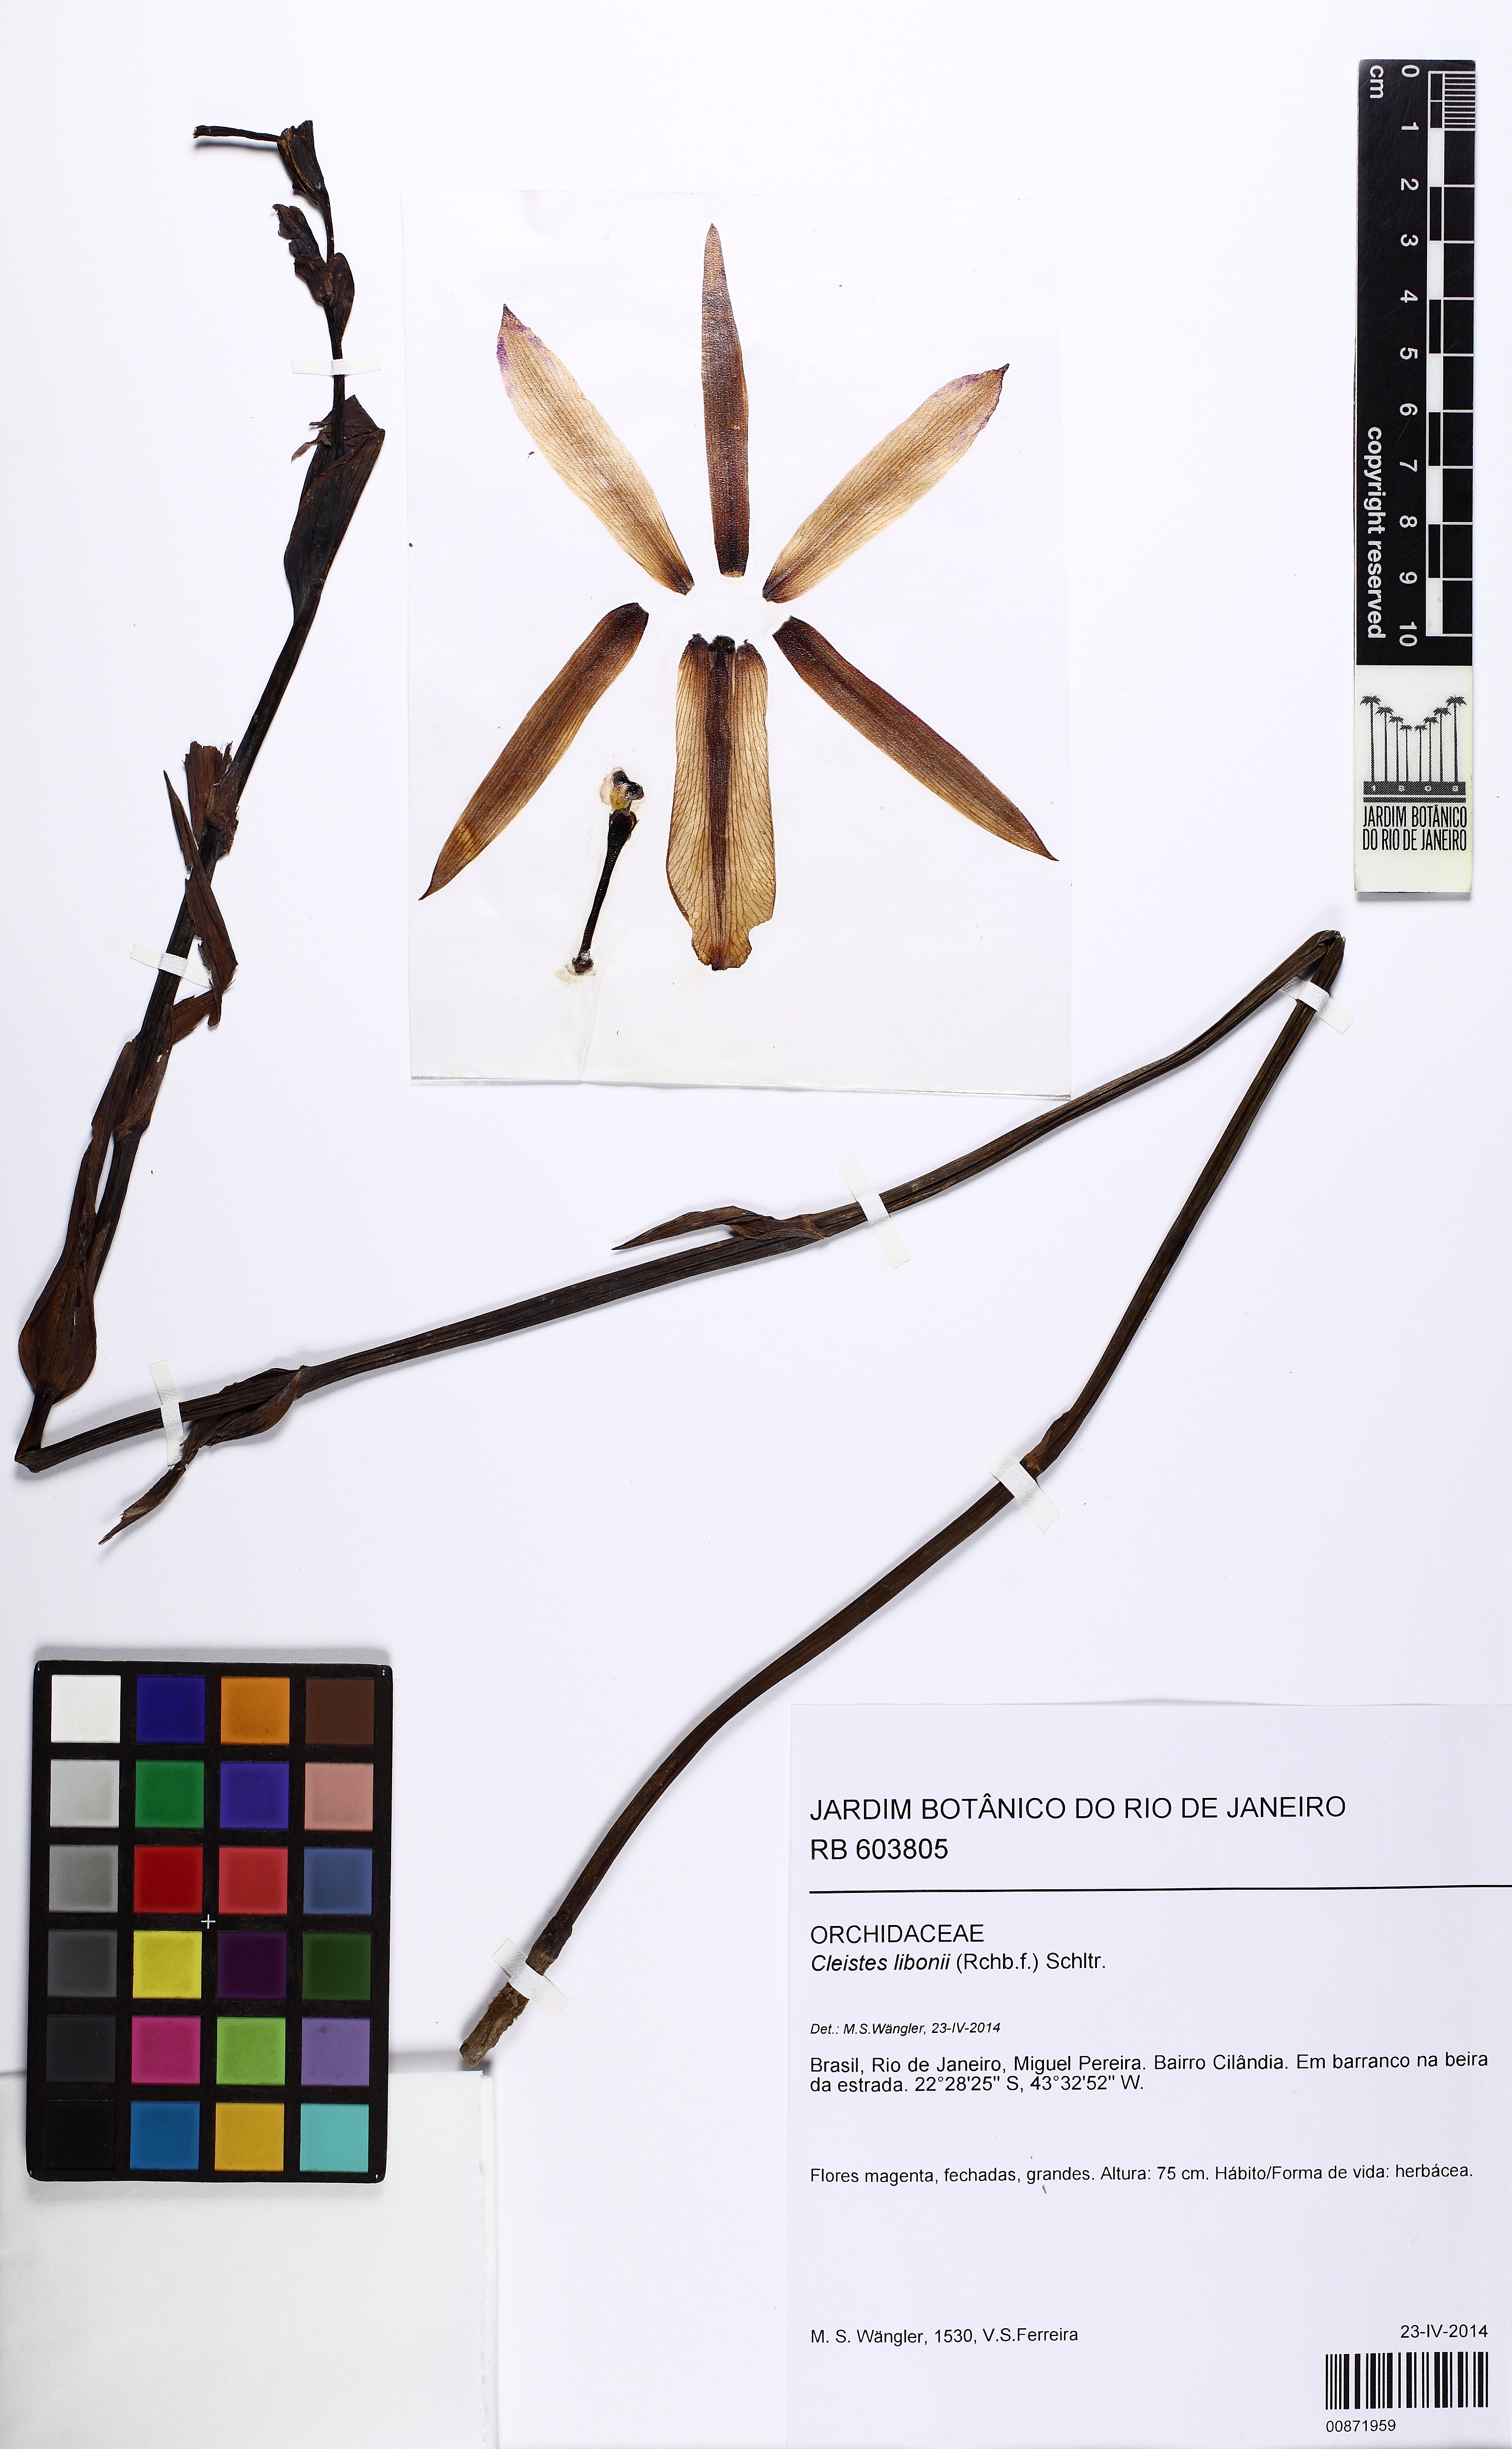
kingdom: Plantae
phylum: Tracheophyta
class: Liliopsida
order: Asparagales
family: Orchidaceae
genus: Cleistes
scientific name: Cleistes libonii
